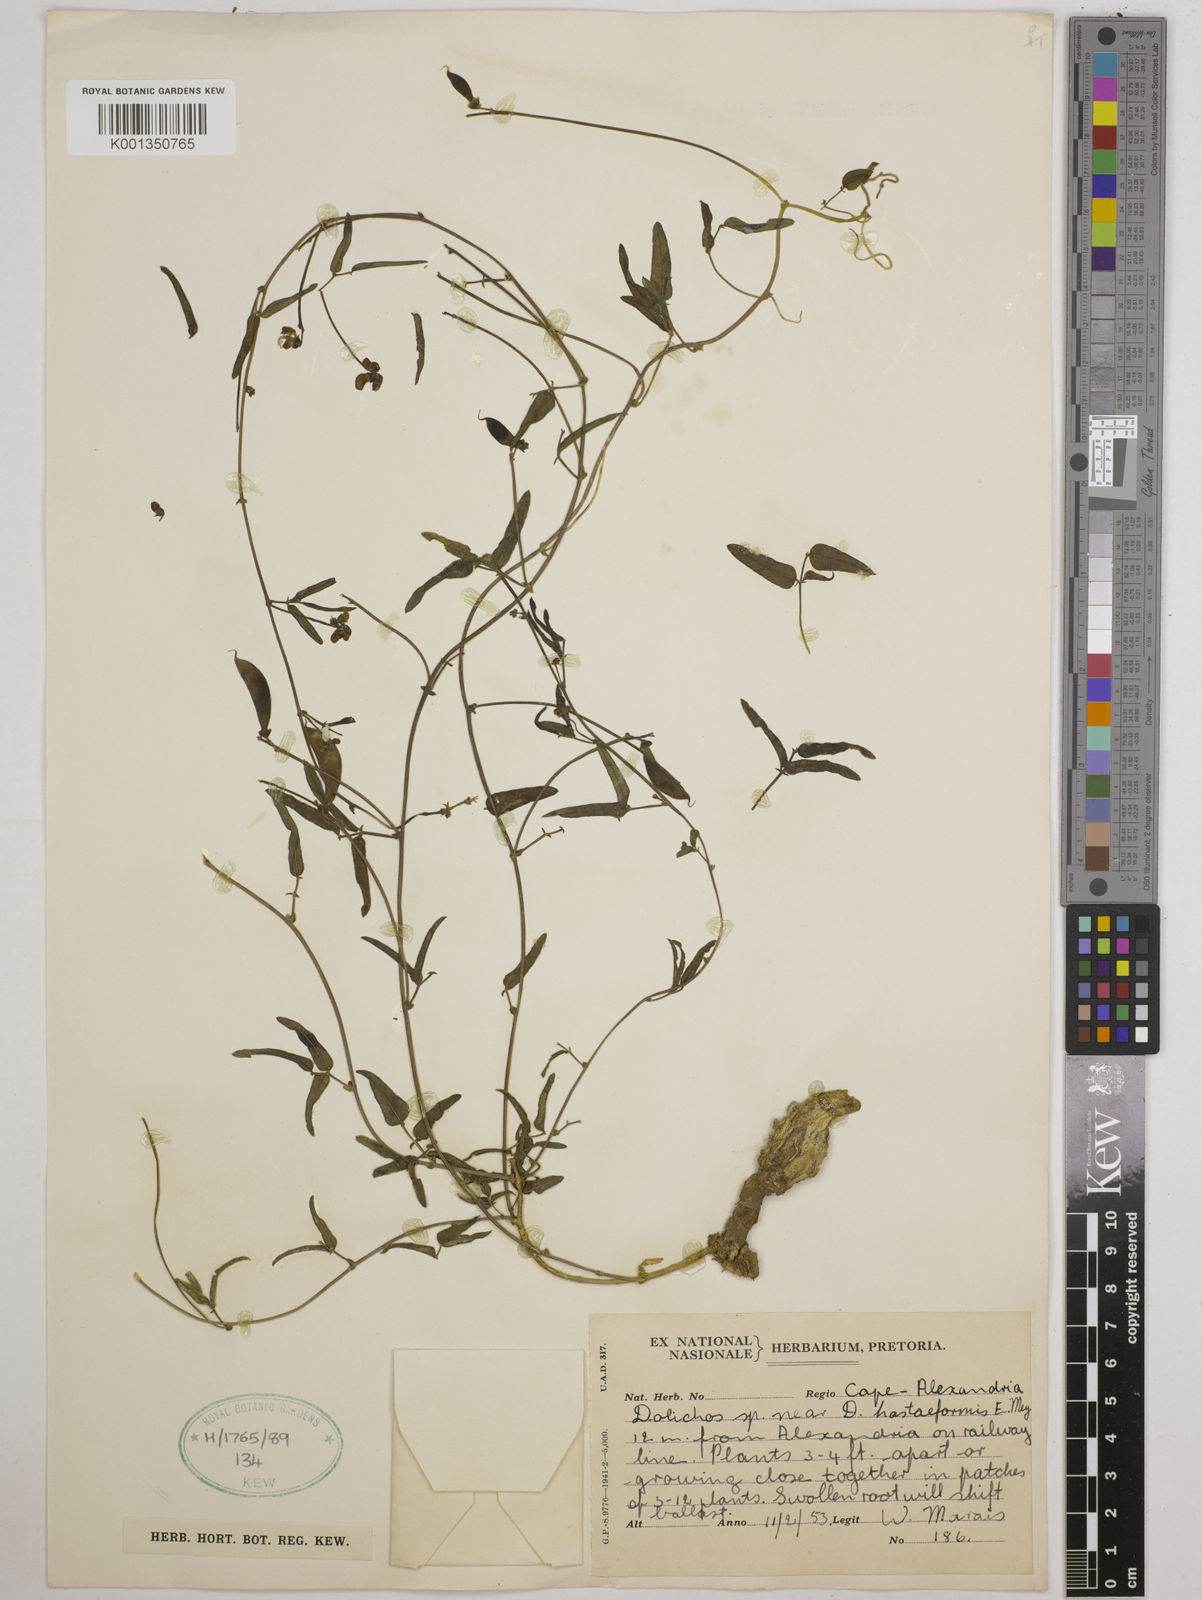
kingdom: Plantae
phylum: Tracheophyta
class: Magnoliopsida
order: Fabales
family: Fabaceae
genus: Dolichos
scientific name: Dolichos
